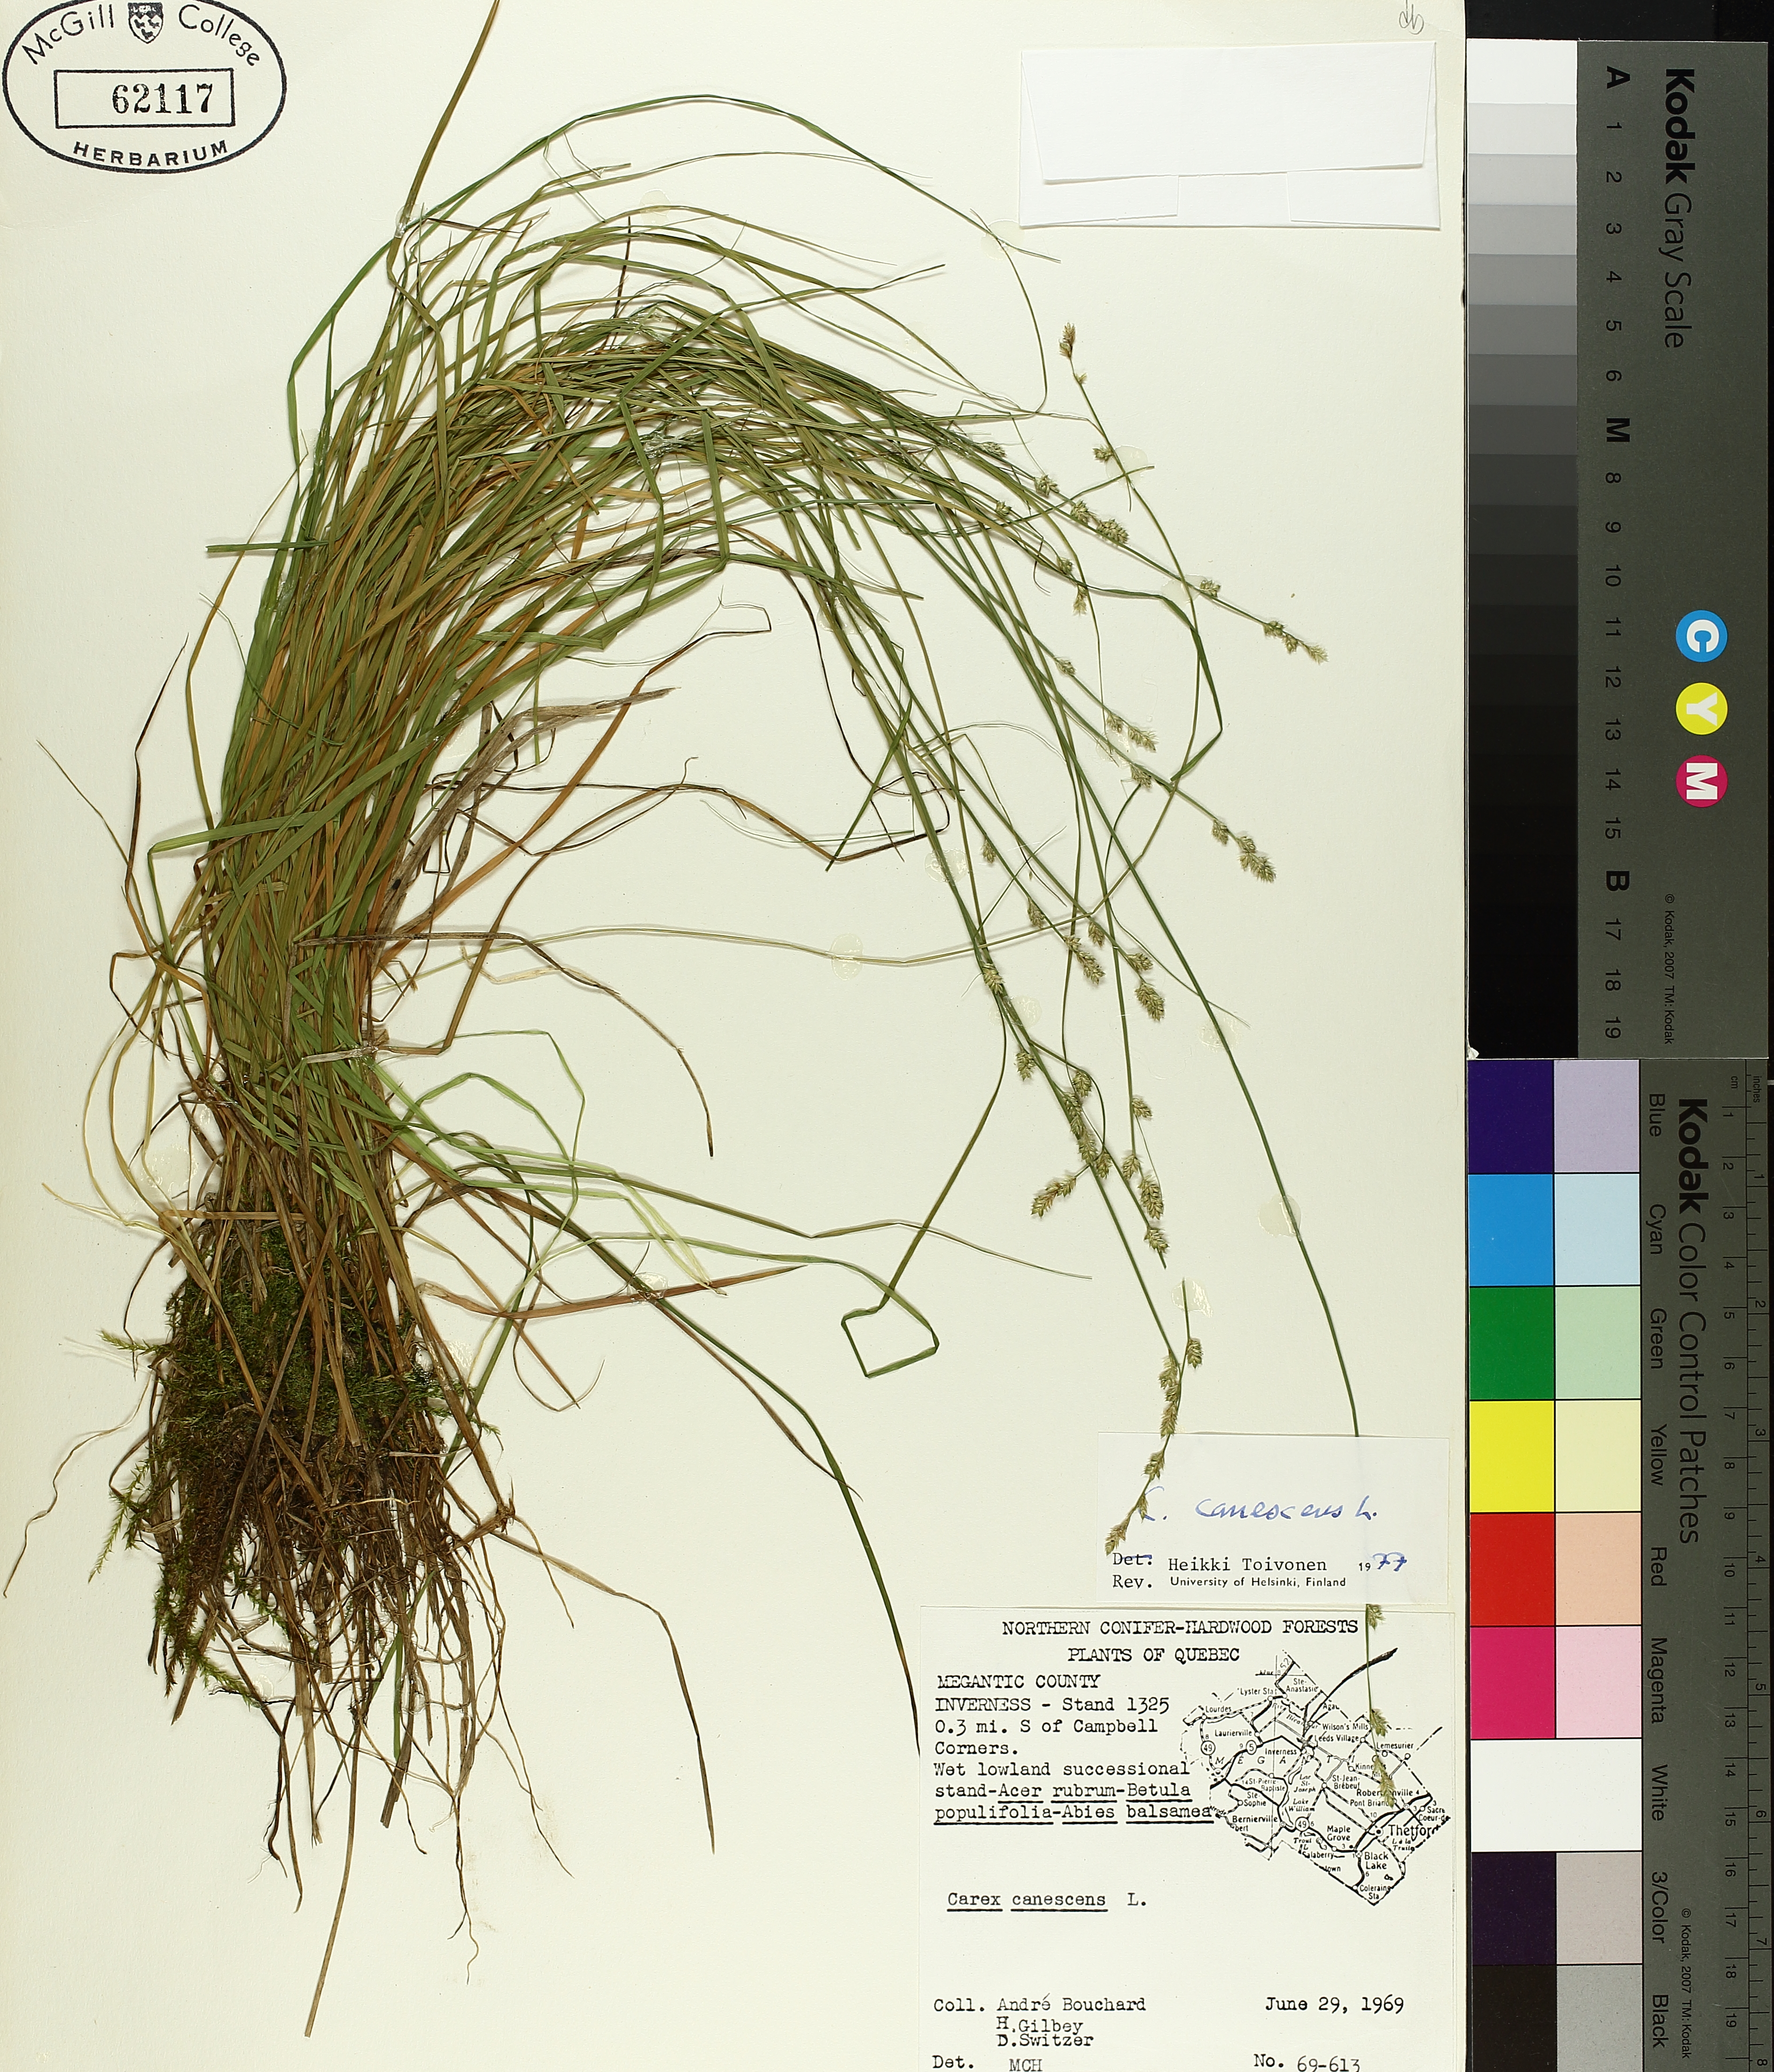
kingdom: Plantae
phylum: Tracheophyta
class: Liliopsida
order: Poales
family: Cyperaceae
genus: Carex
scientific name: Carex canescens
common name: White sedge
